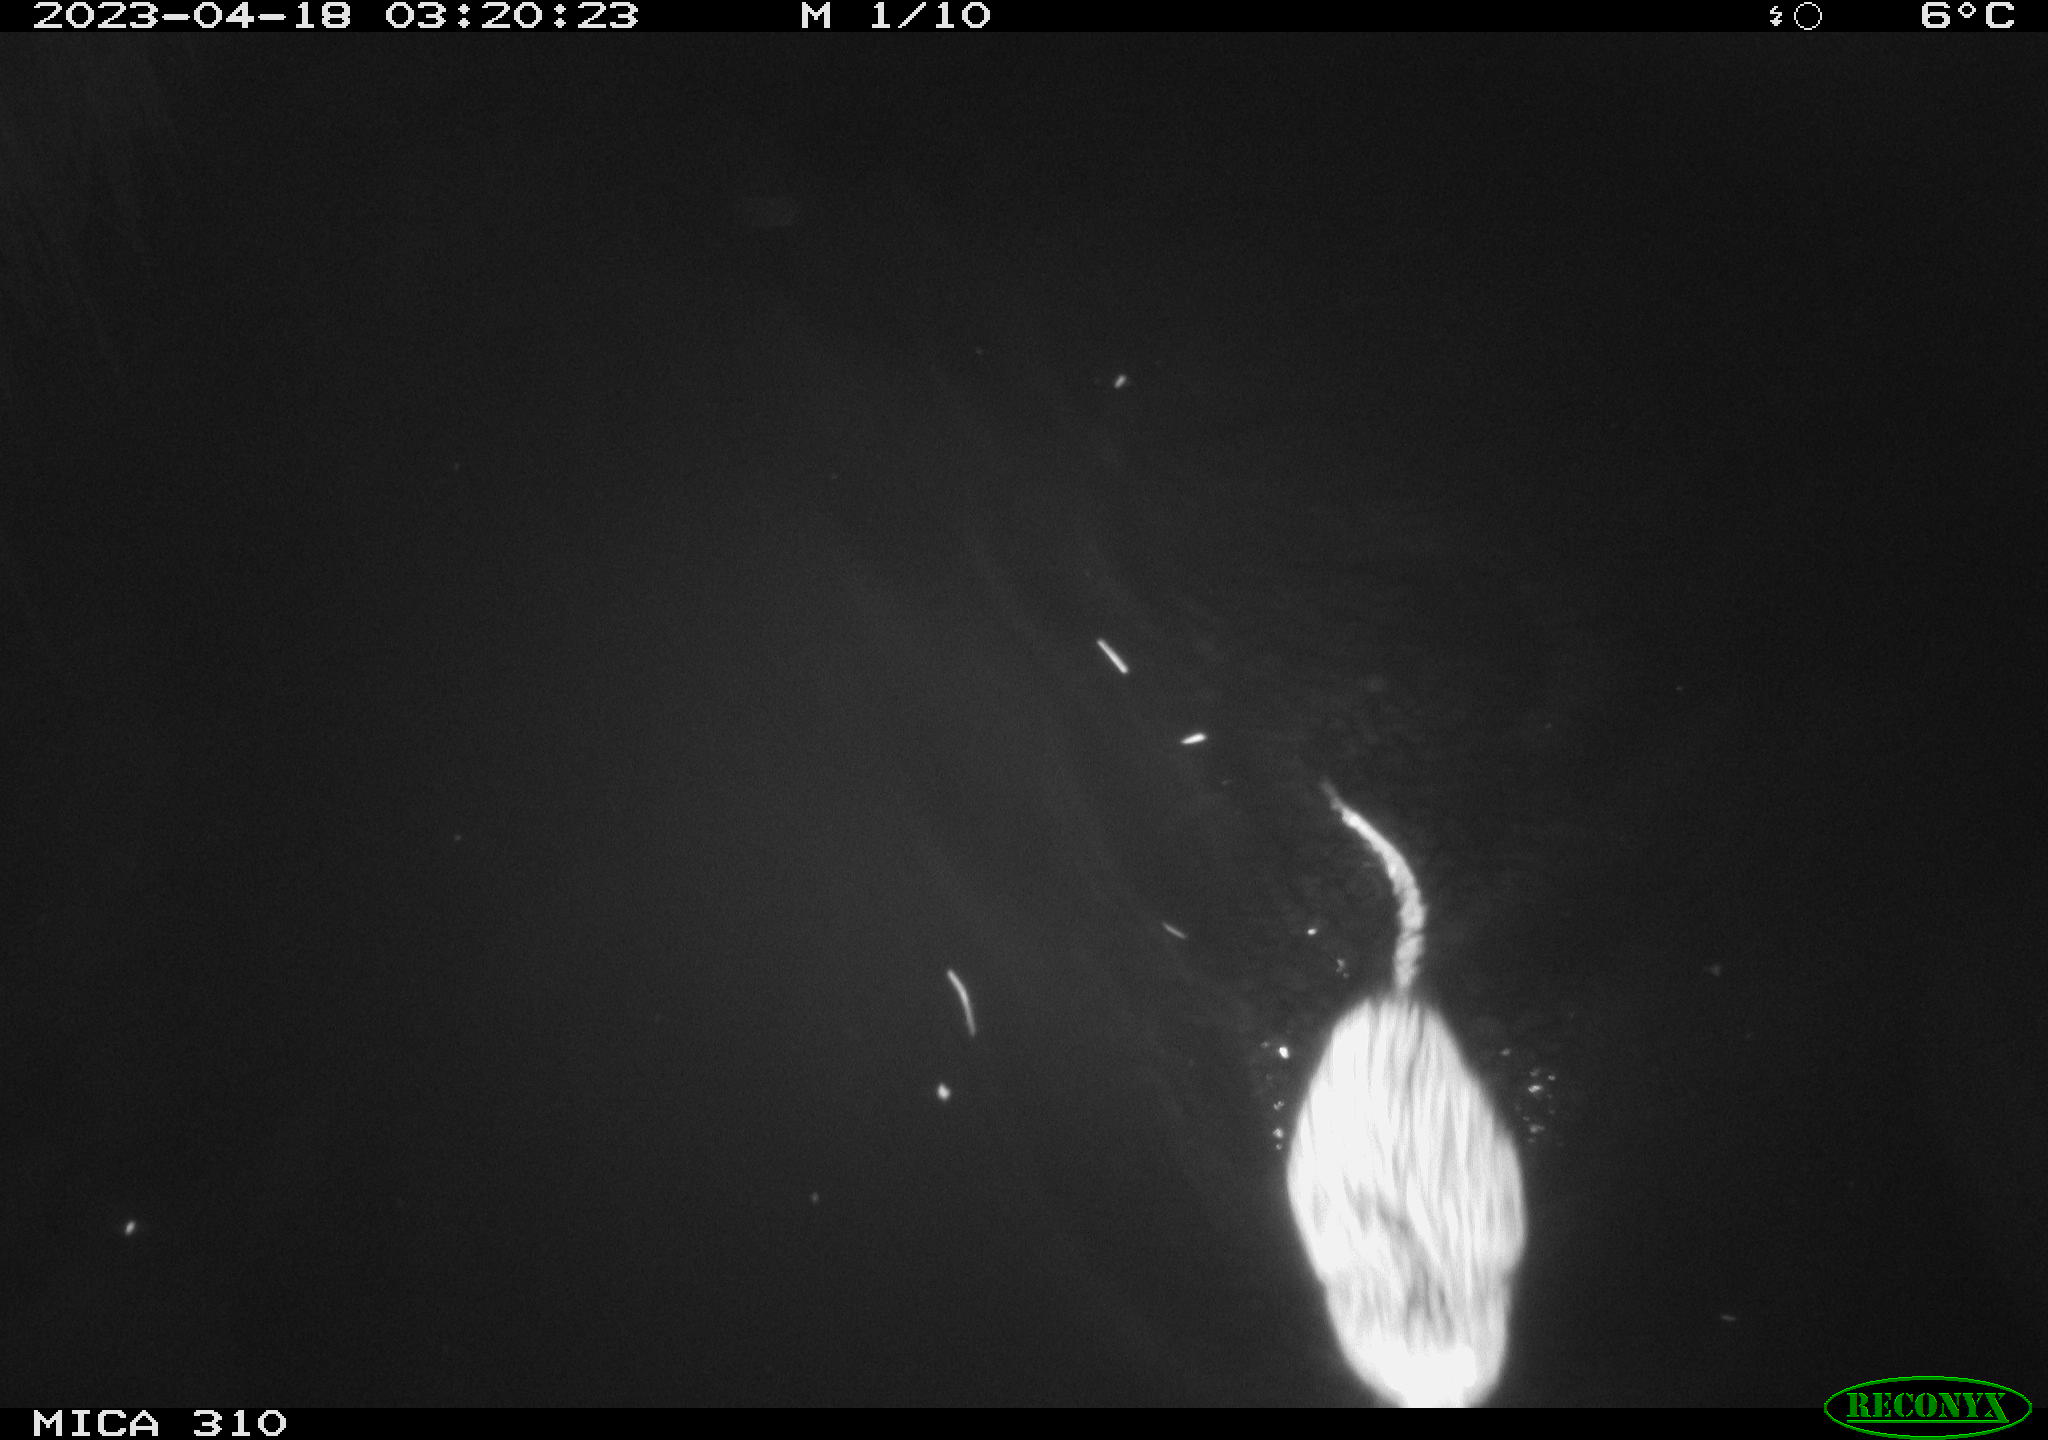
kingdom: Animalia
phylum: Chordata
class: Mammalia
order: Rodentia
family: Cricetidae
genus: Ondatra
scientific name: Ondatra zibethicus
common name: Muskrat
